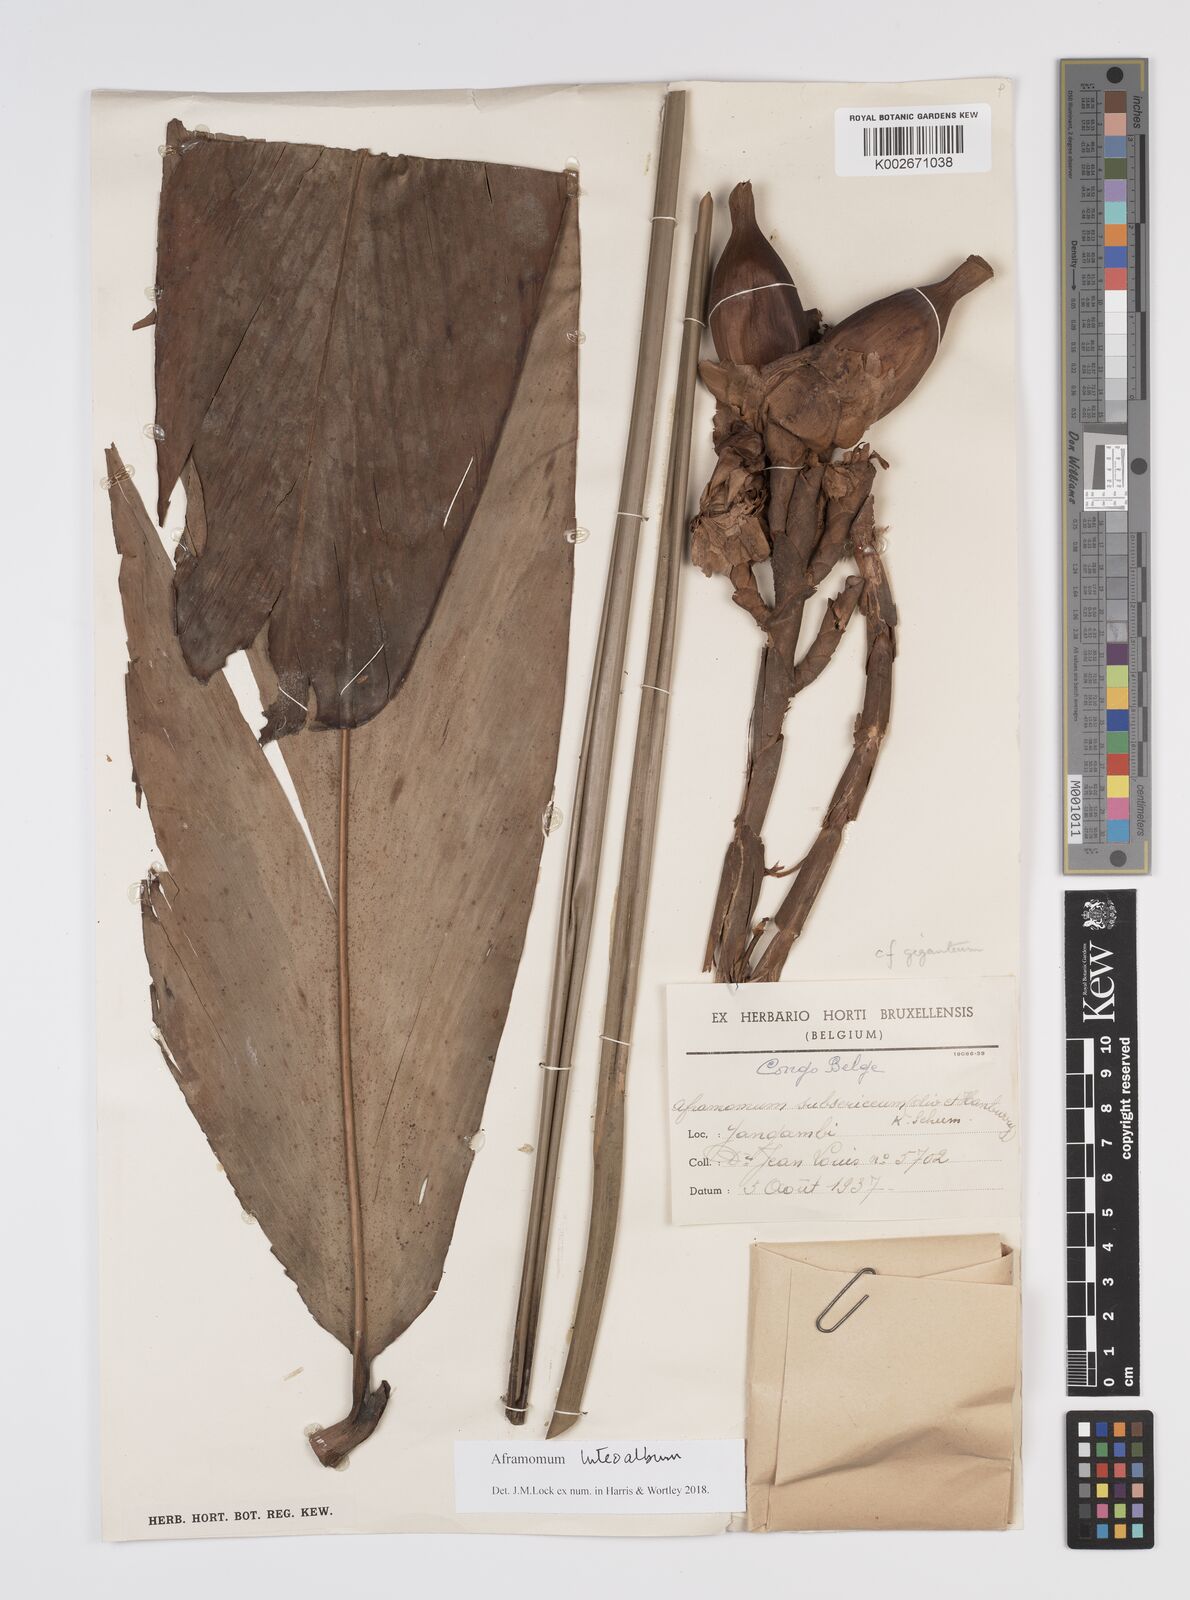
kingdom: Plantae
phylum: Tracheophyta
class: Liliopsida
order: Zingiberales
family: Zingiberaceae
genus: Aframomum
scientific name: Aframomum luteoalbum
